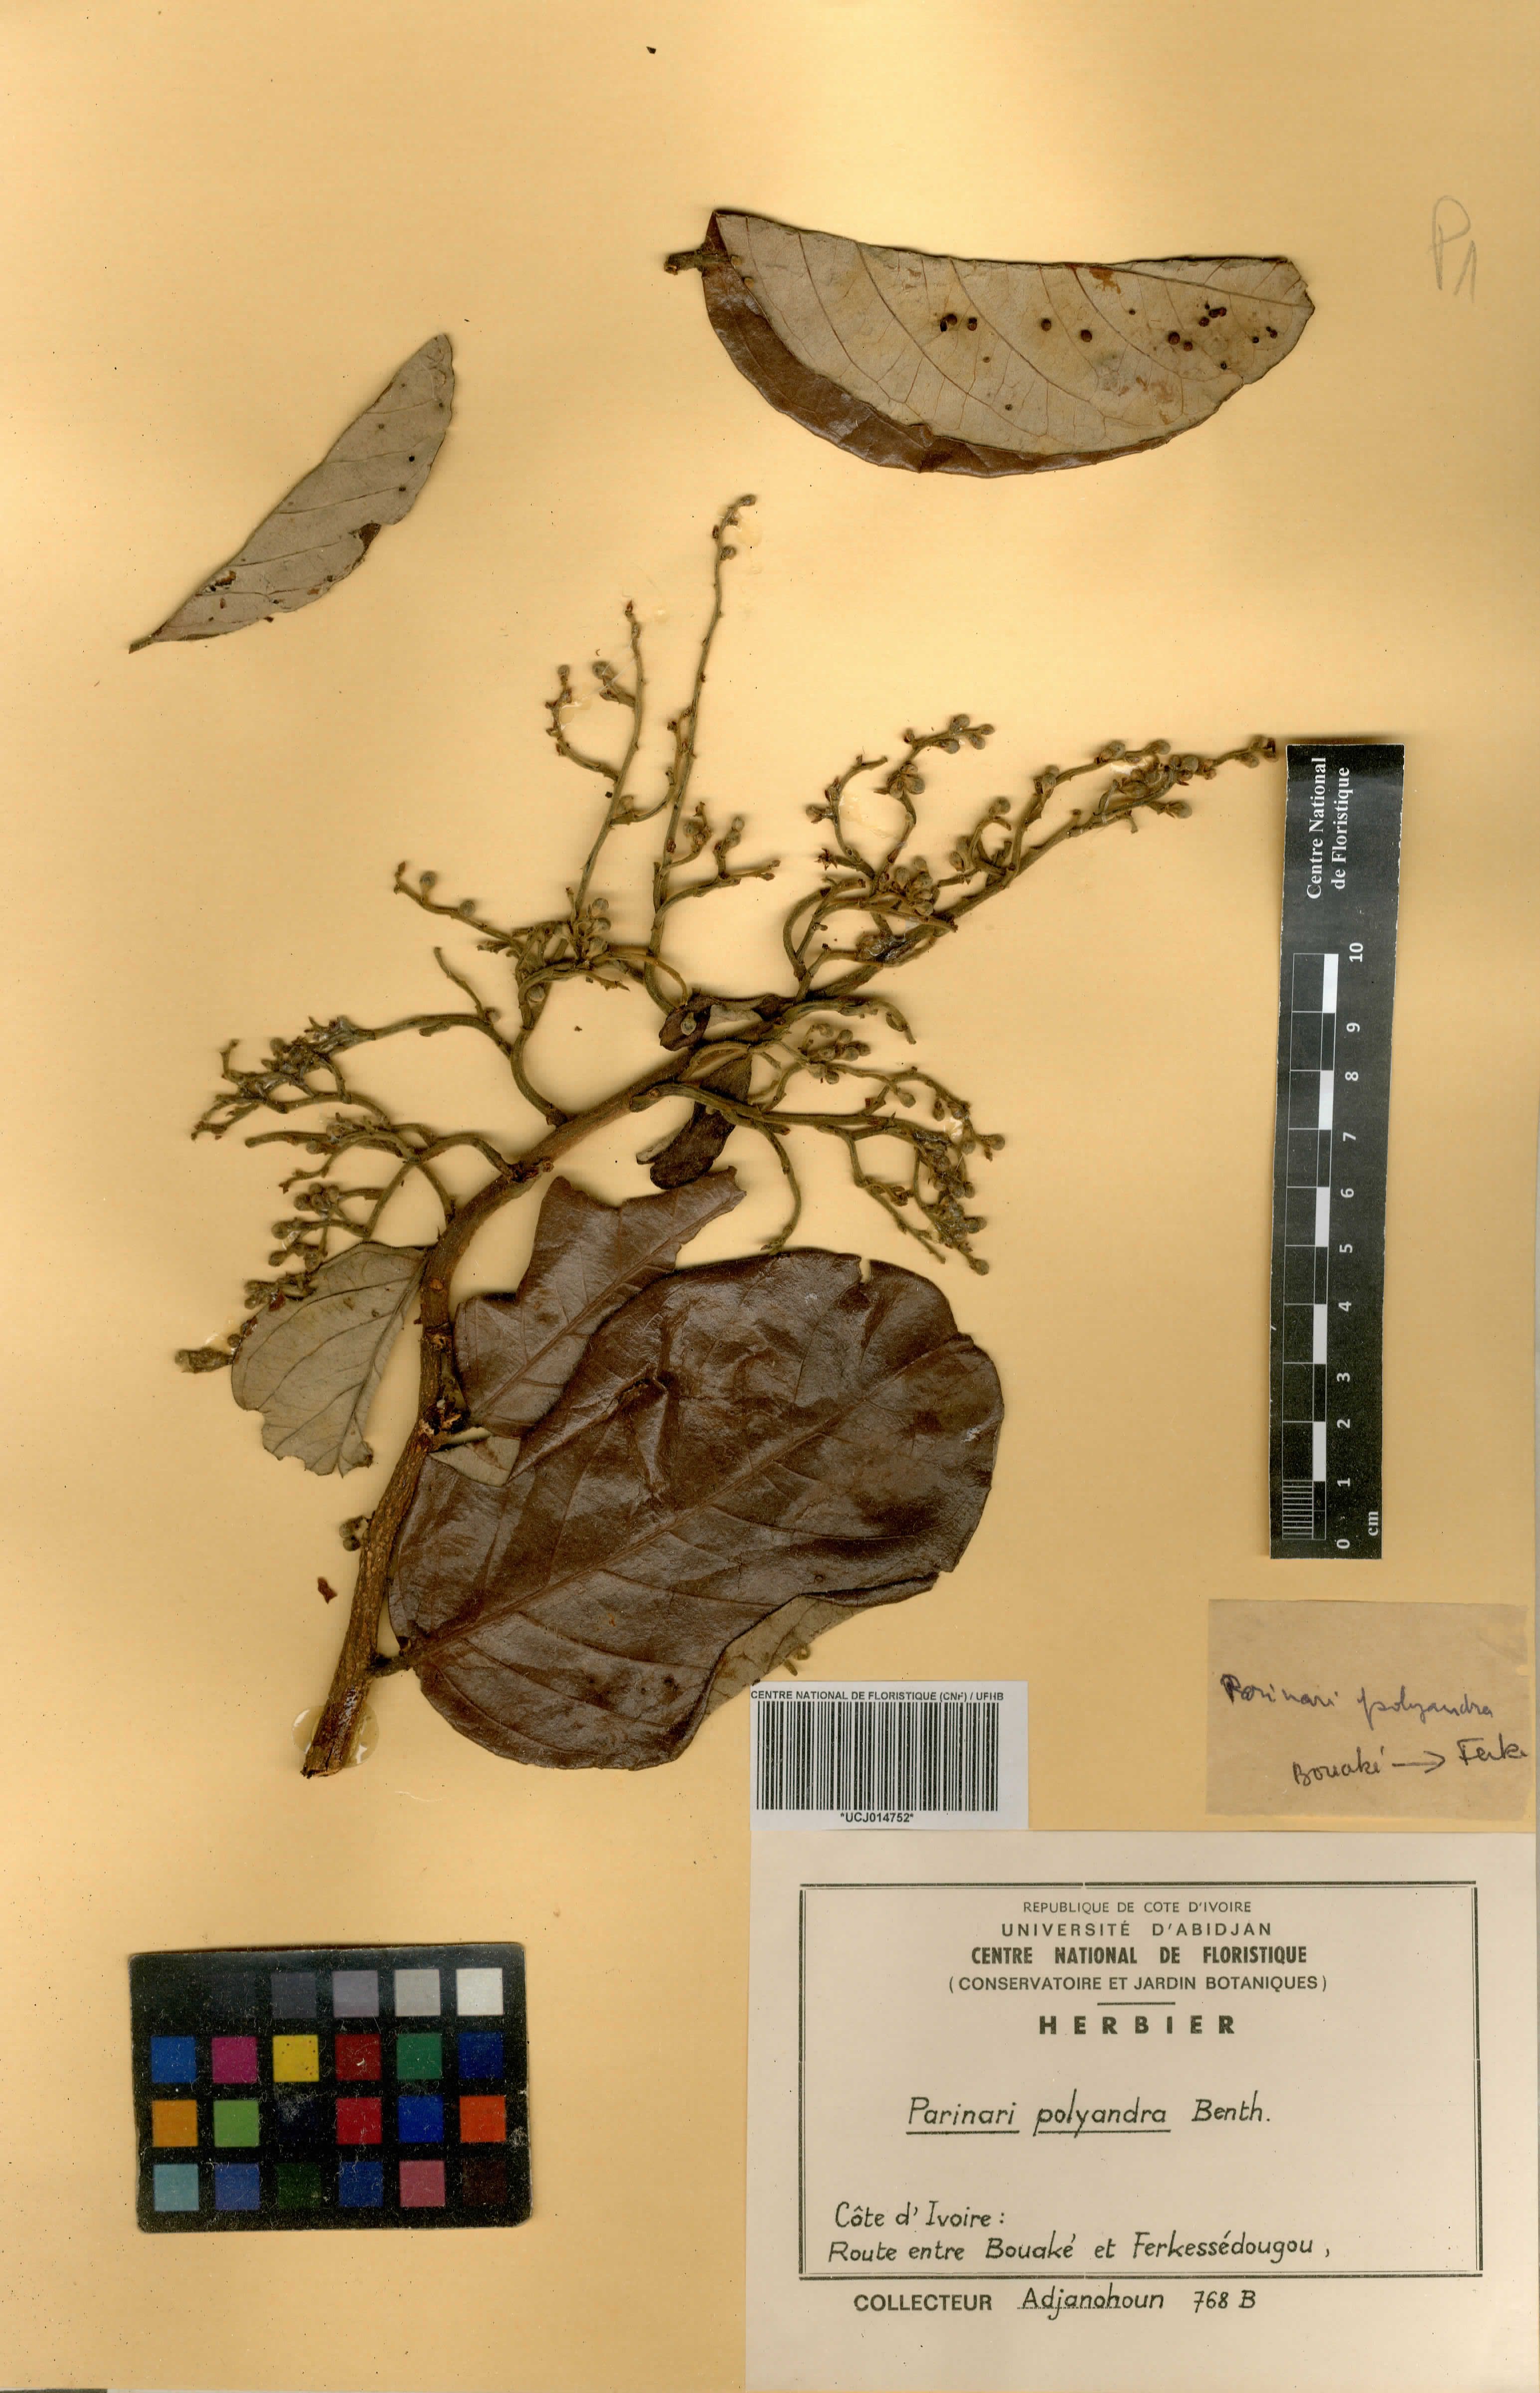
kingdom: Plantae
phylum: Tracheophyta
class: Magnoliopsida
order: Malpighiales
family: Chrysobalanaceae
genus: Maranthes
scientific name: Maranthes polyandra
